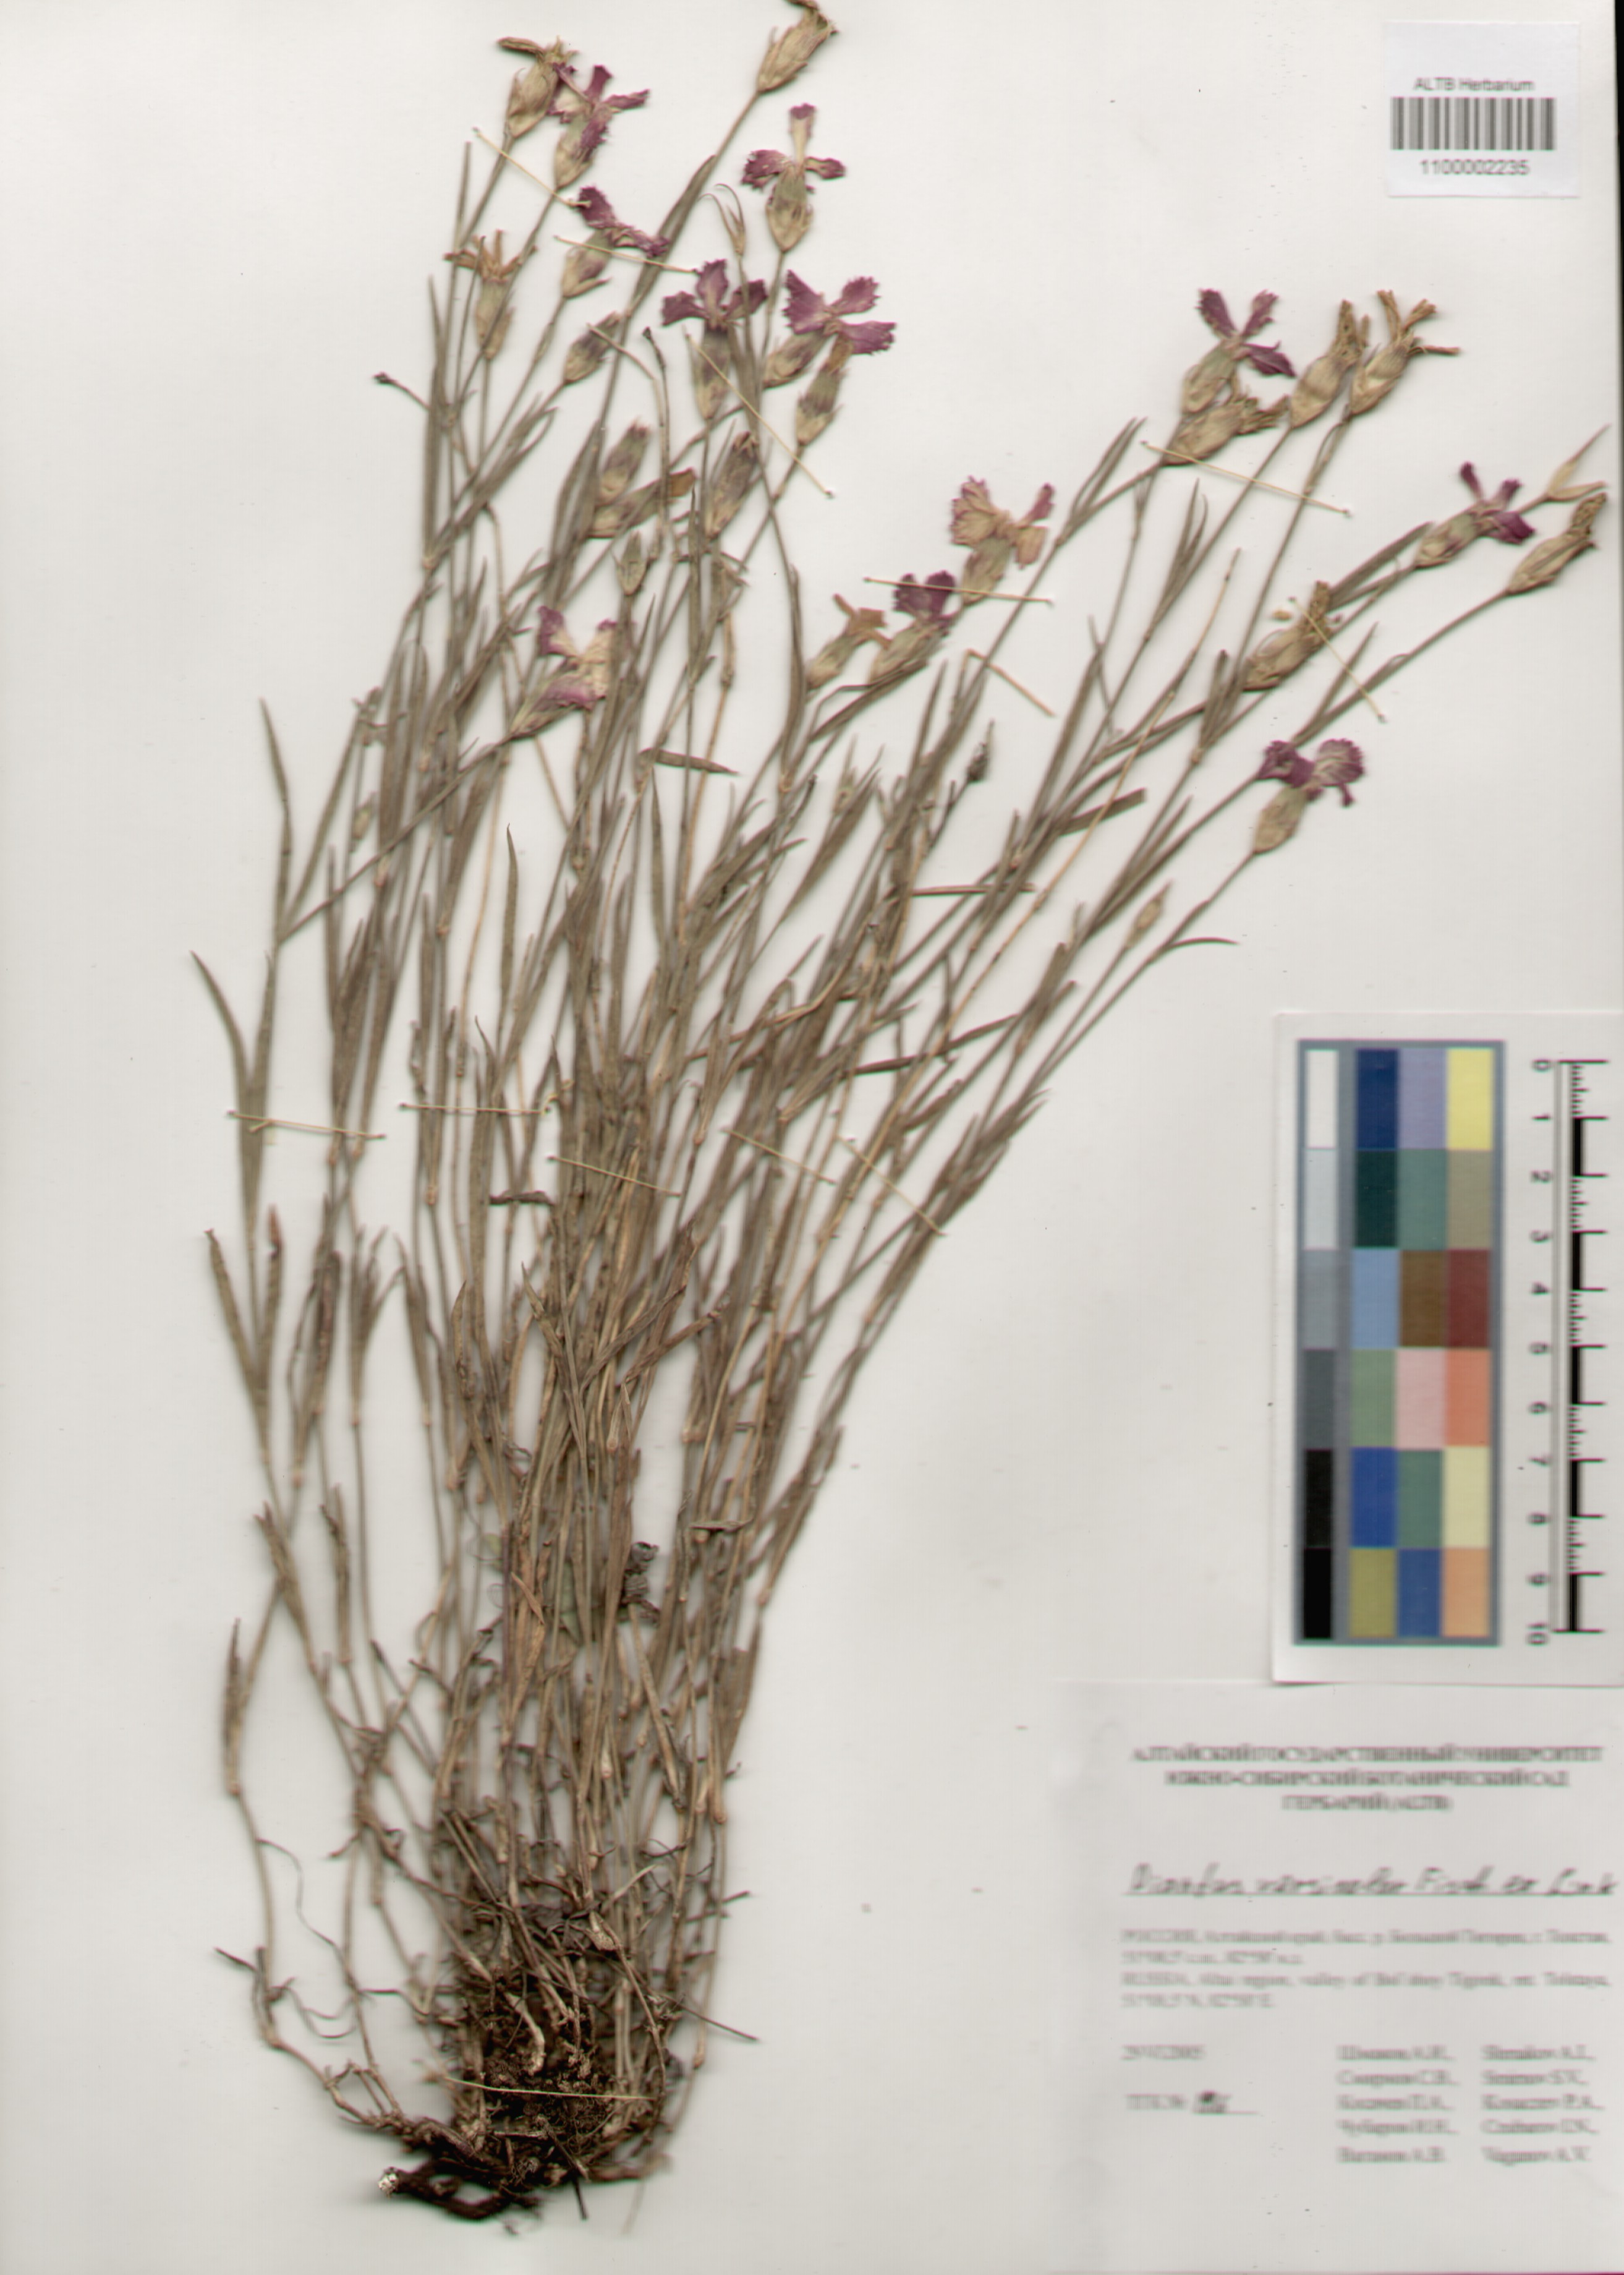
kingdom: Plantae
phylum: Tracheophyta
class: Magnoliopsida
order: Caryophyllales
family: Caryophyllaceae
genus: Dianthus
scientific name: Dianthus chinensis
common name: Rainbow pink
